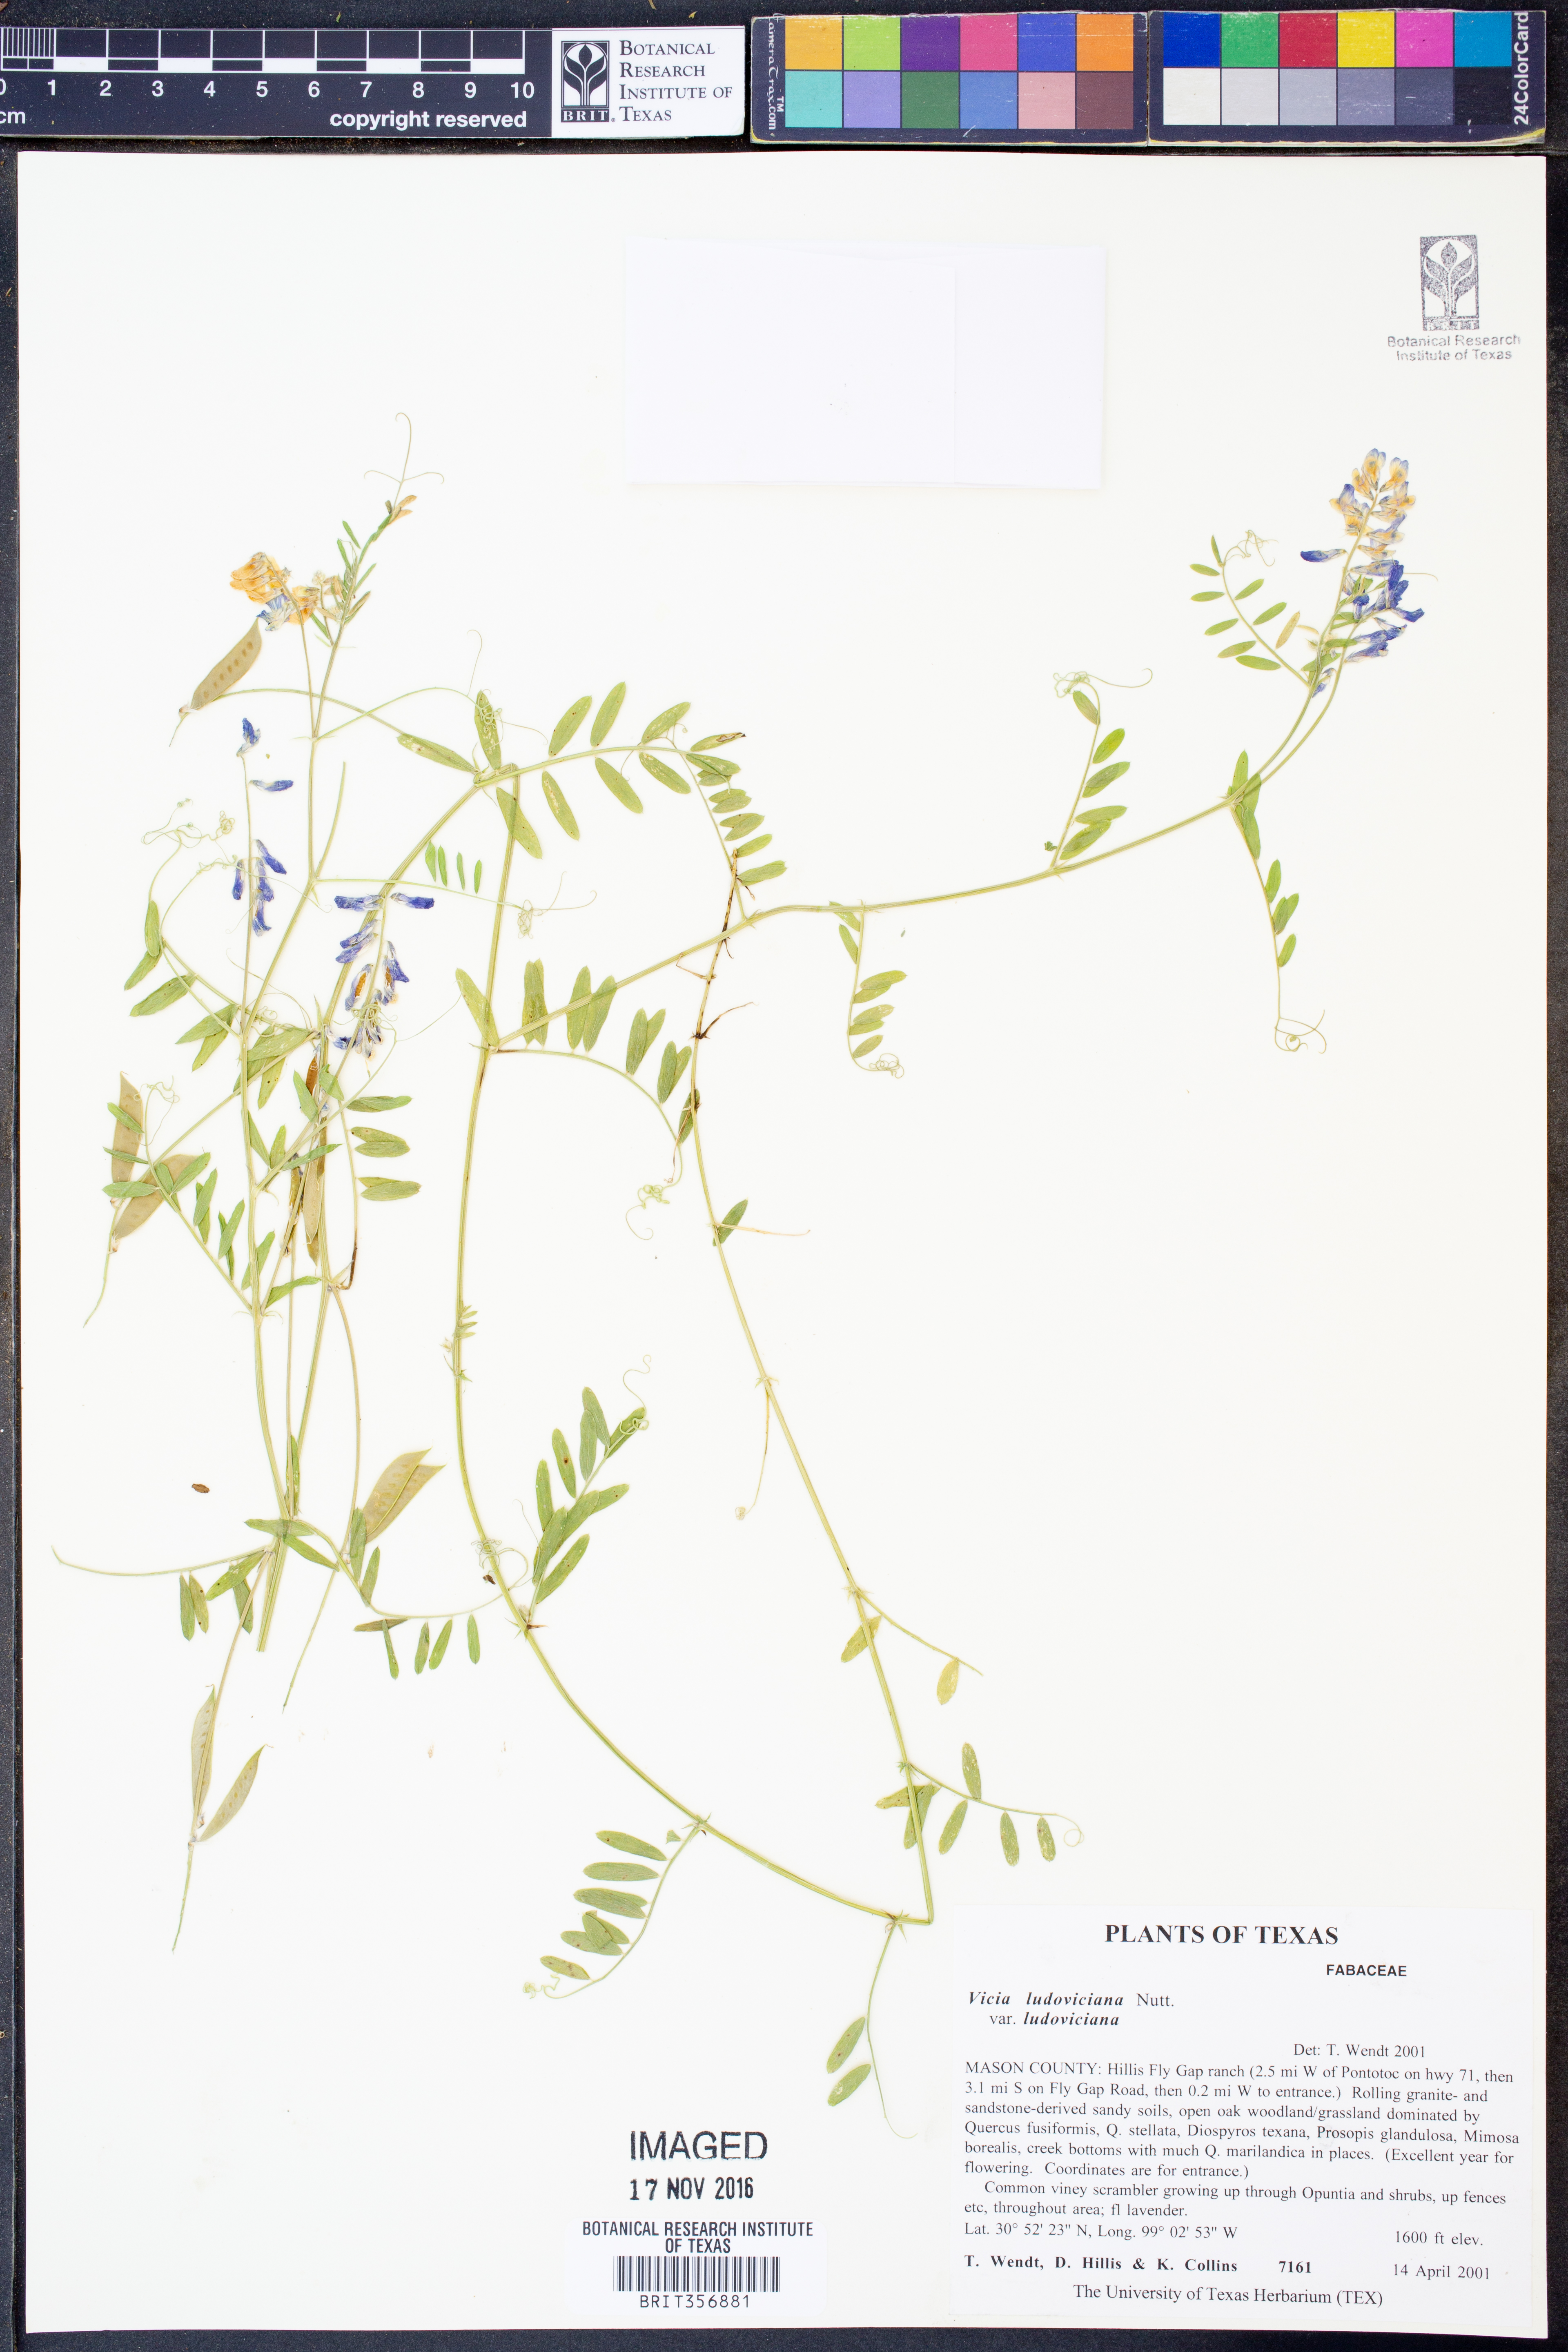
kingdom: Plantae
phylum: Tracheophyta
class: Magnoliopsida
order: Fabales
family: Fabaceae
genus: Vicia
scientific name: Vicia ludoviciana
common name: Louisiana vetch
